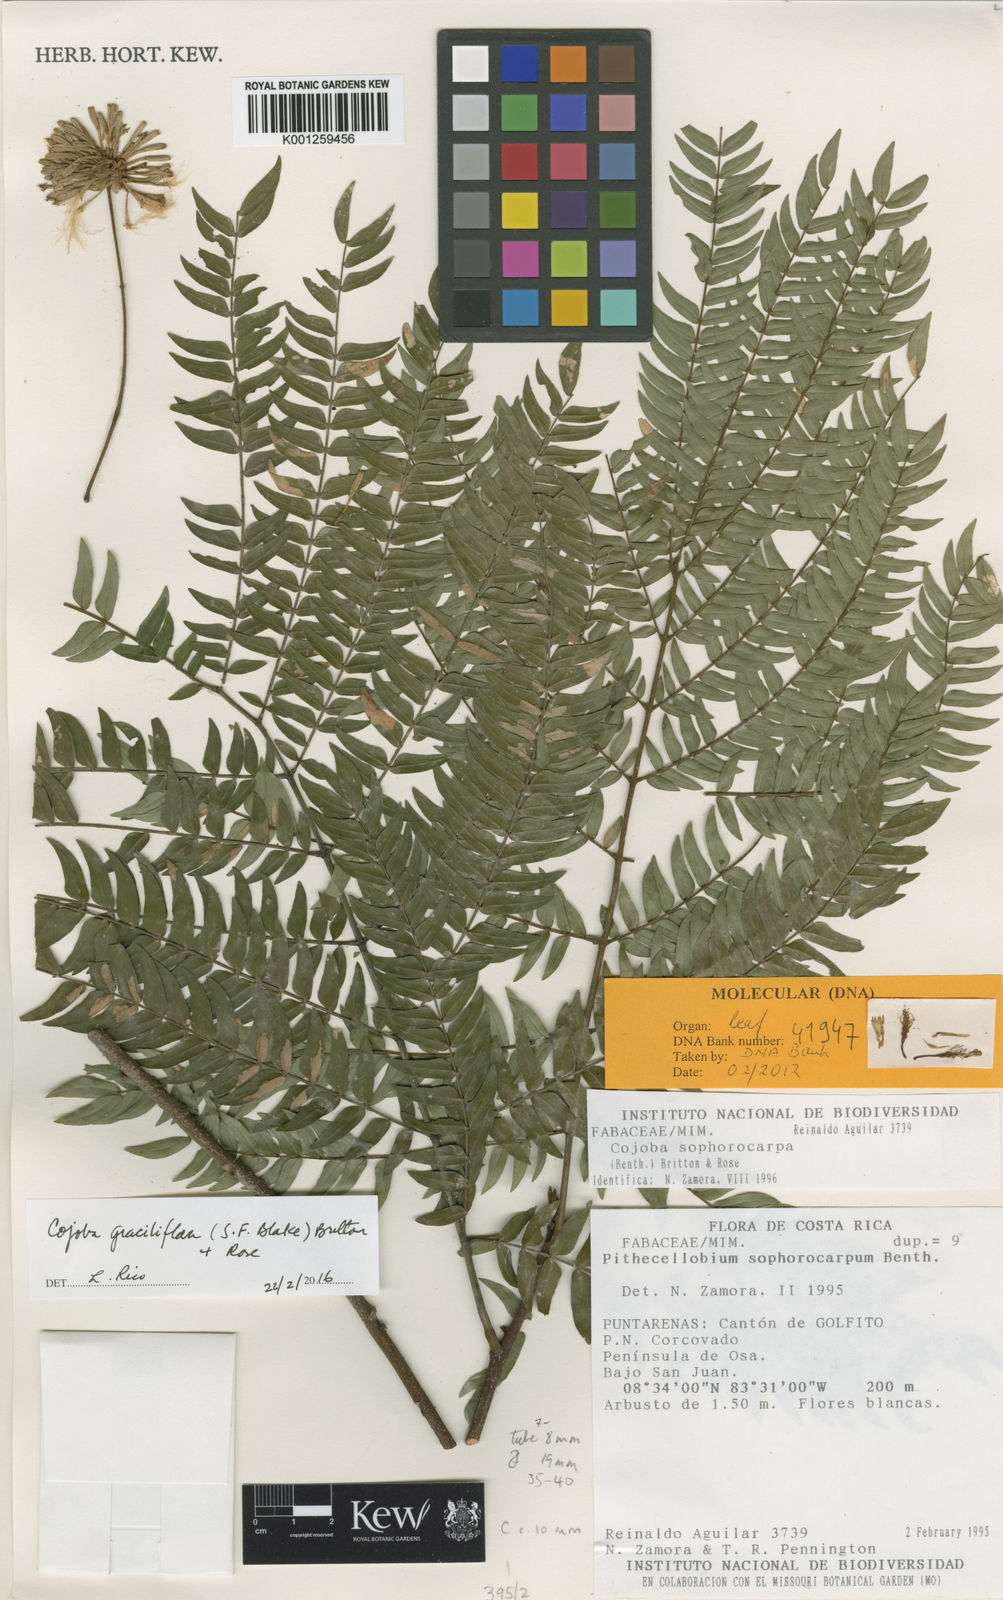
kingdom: Plantae
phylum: Tracheophyta
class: Magnoliopsida
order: Fabales
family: Fabaceae
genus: Cojoba
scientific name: Cojoba graciliflora
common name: Guadeloupe blackbead
